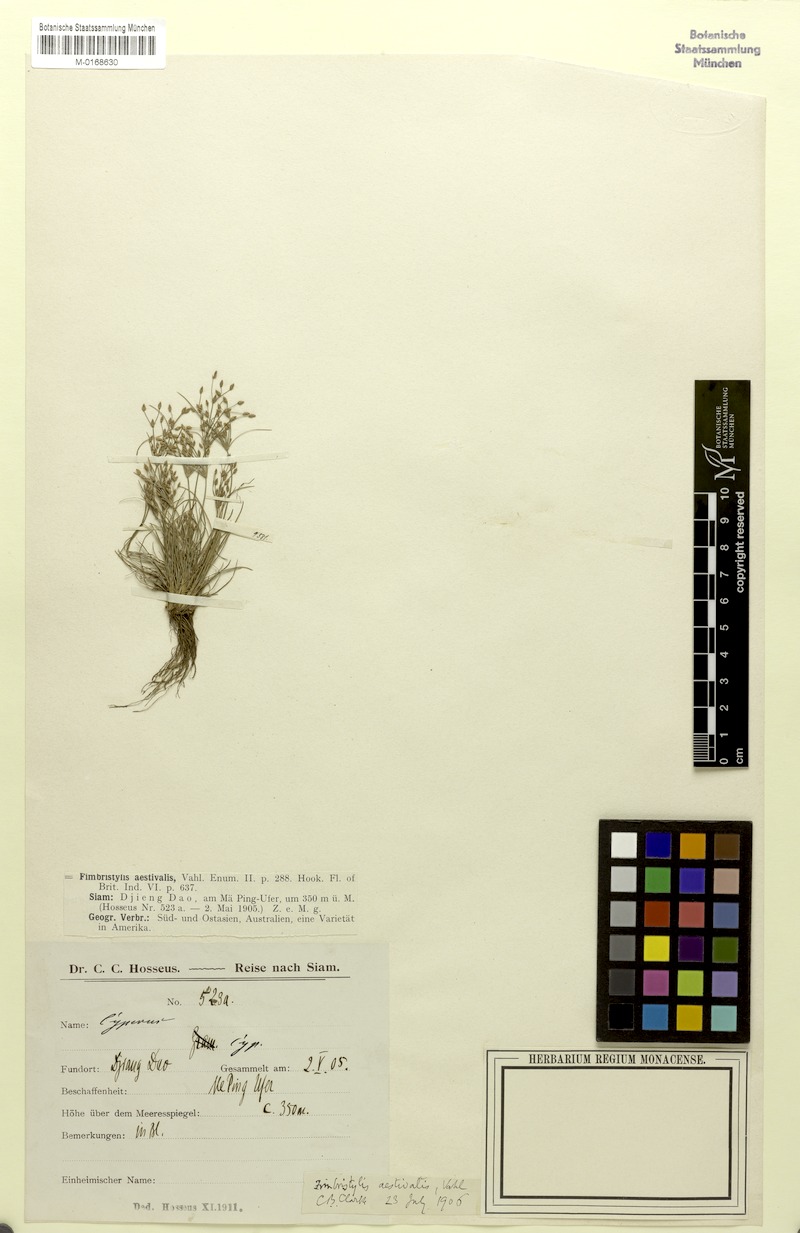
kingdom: Plantae
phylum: Tracheophyta
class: Liliopsida
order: Poales
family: Cyperaceae
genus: Fimbristylis
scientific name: Fimbristylis aestivalis
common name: Summer fimbry
